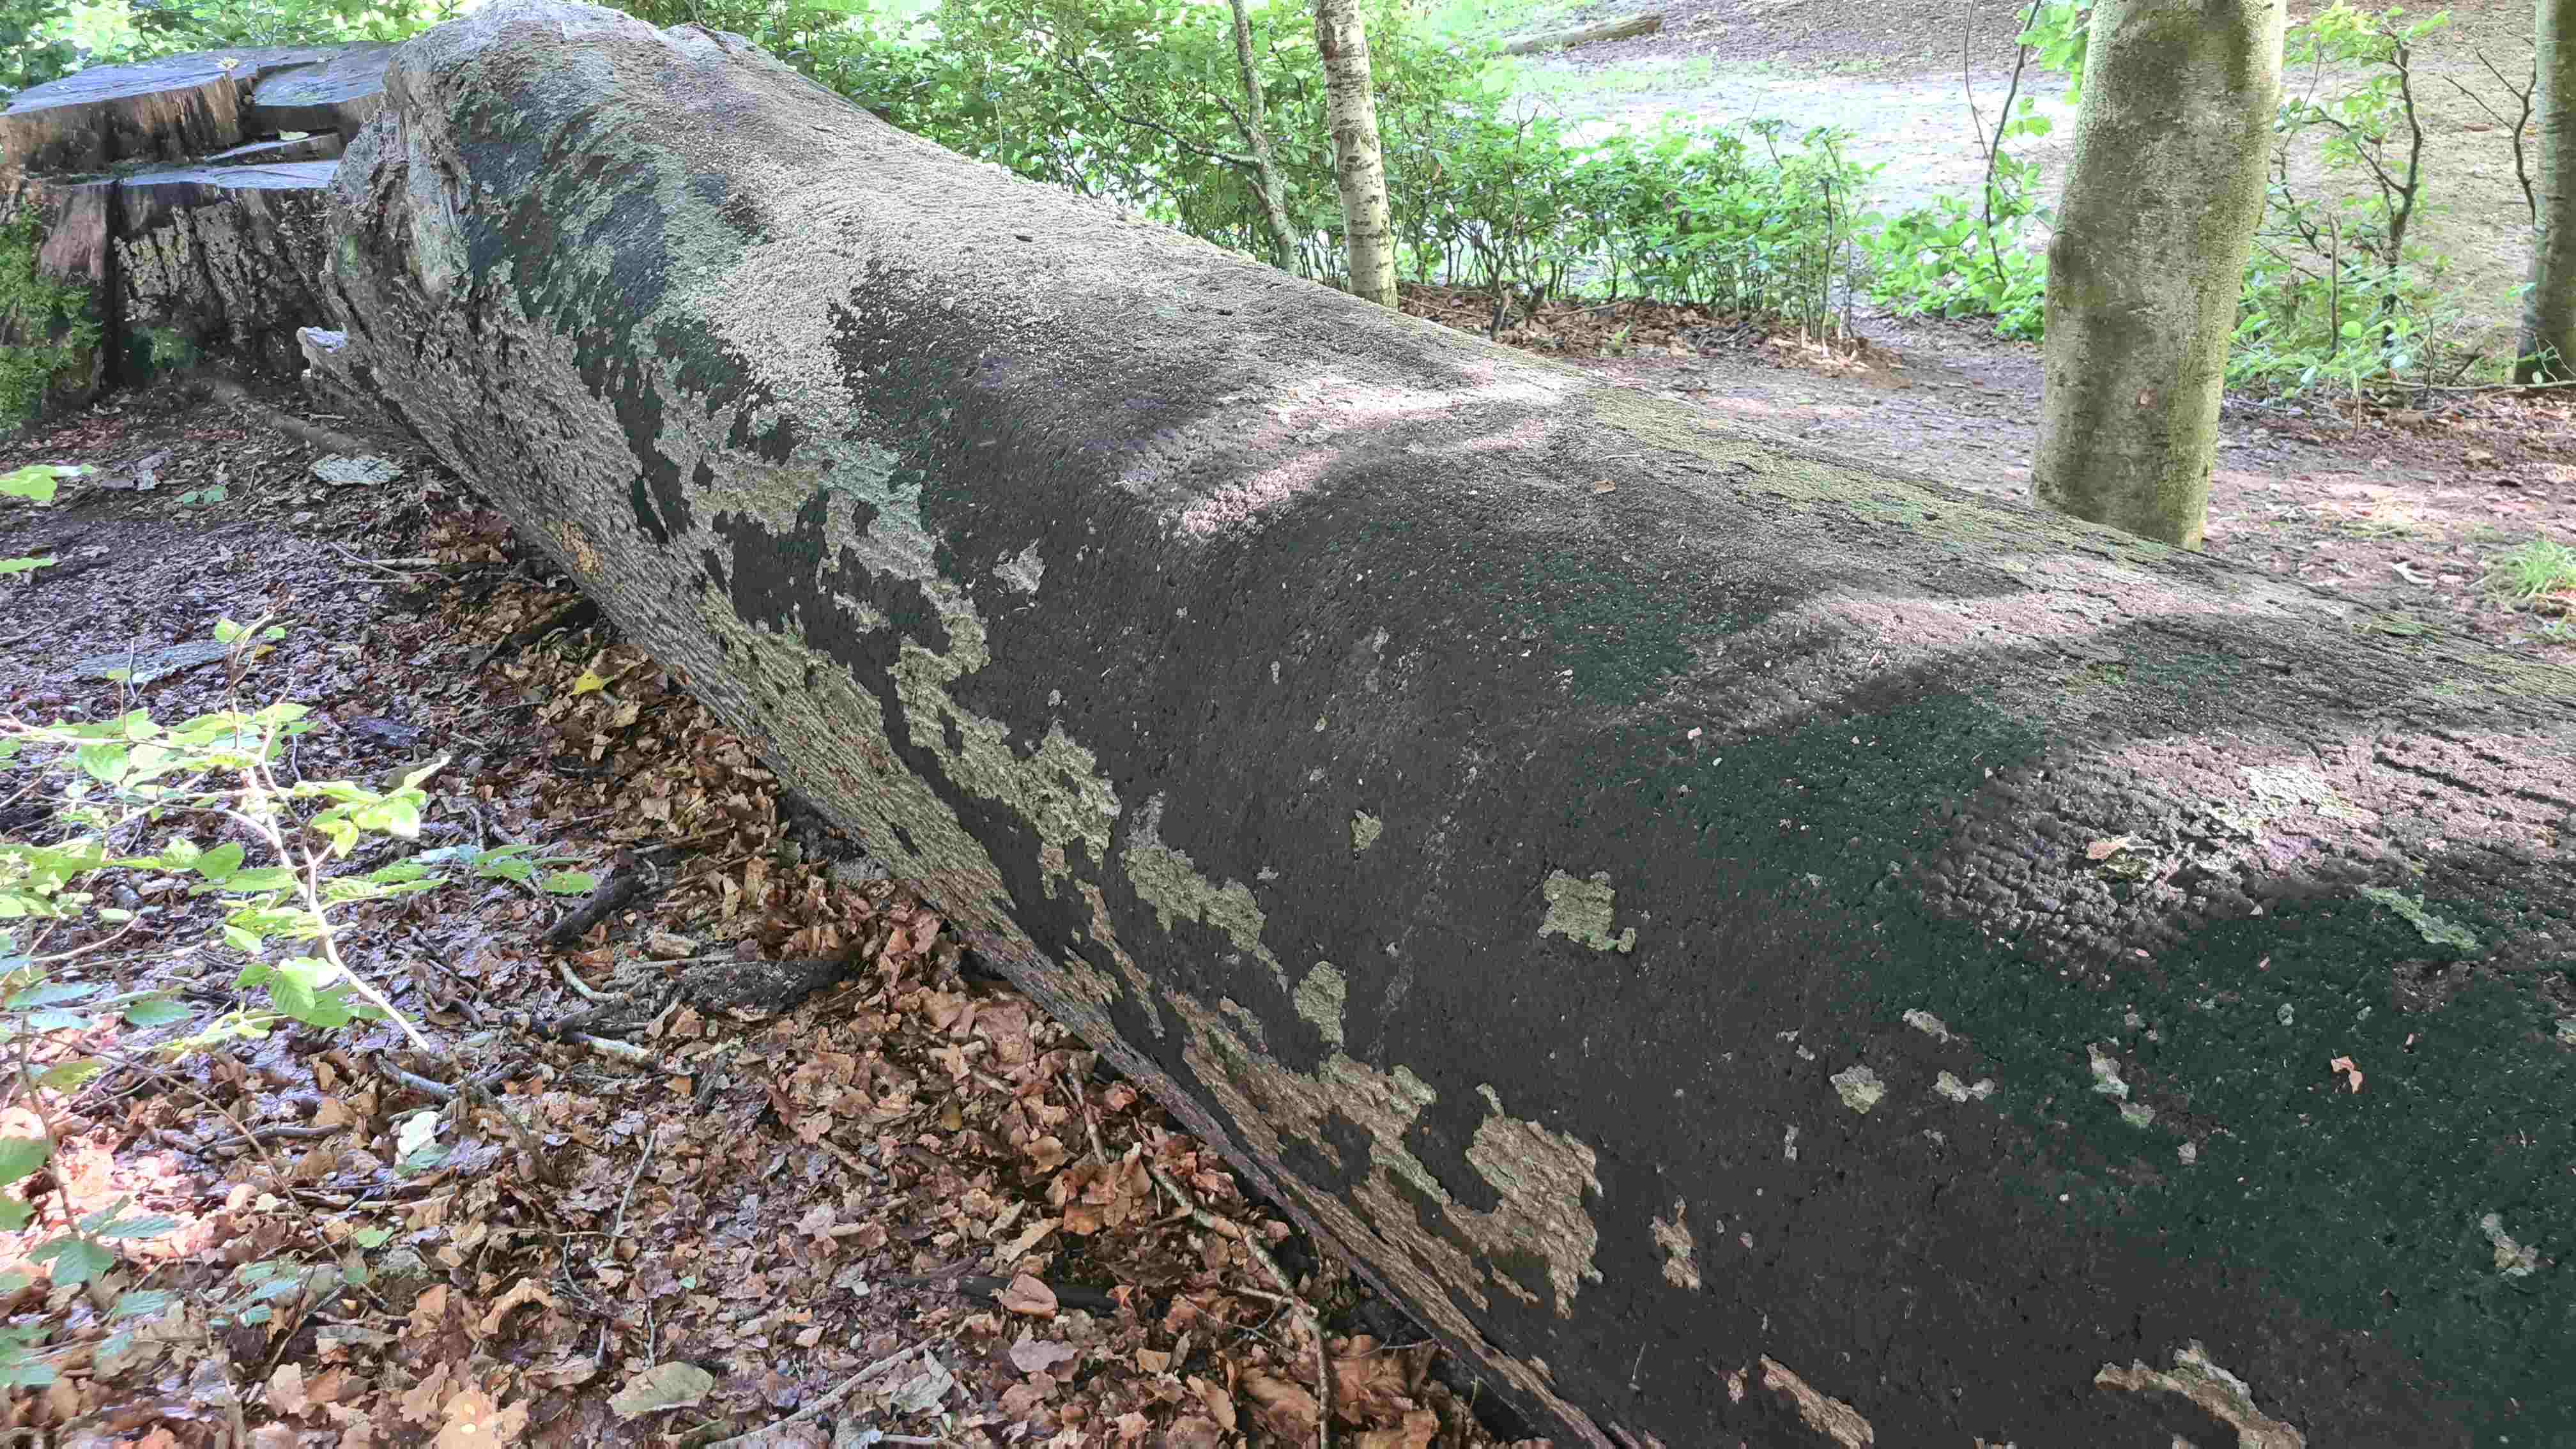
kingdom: Fungi
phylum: Ascomycota
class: Sordariomycetes
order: Xylariales
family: Diatrypaceae
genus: Eutypa
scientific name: Eutypa spinosa
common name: grov kulskorpe
